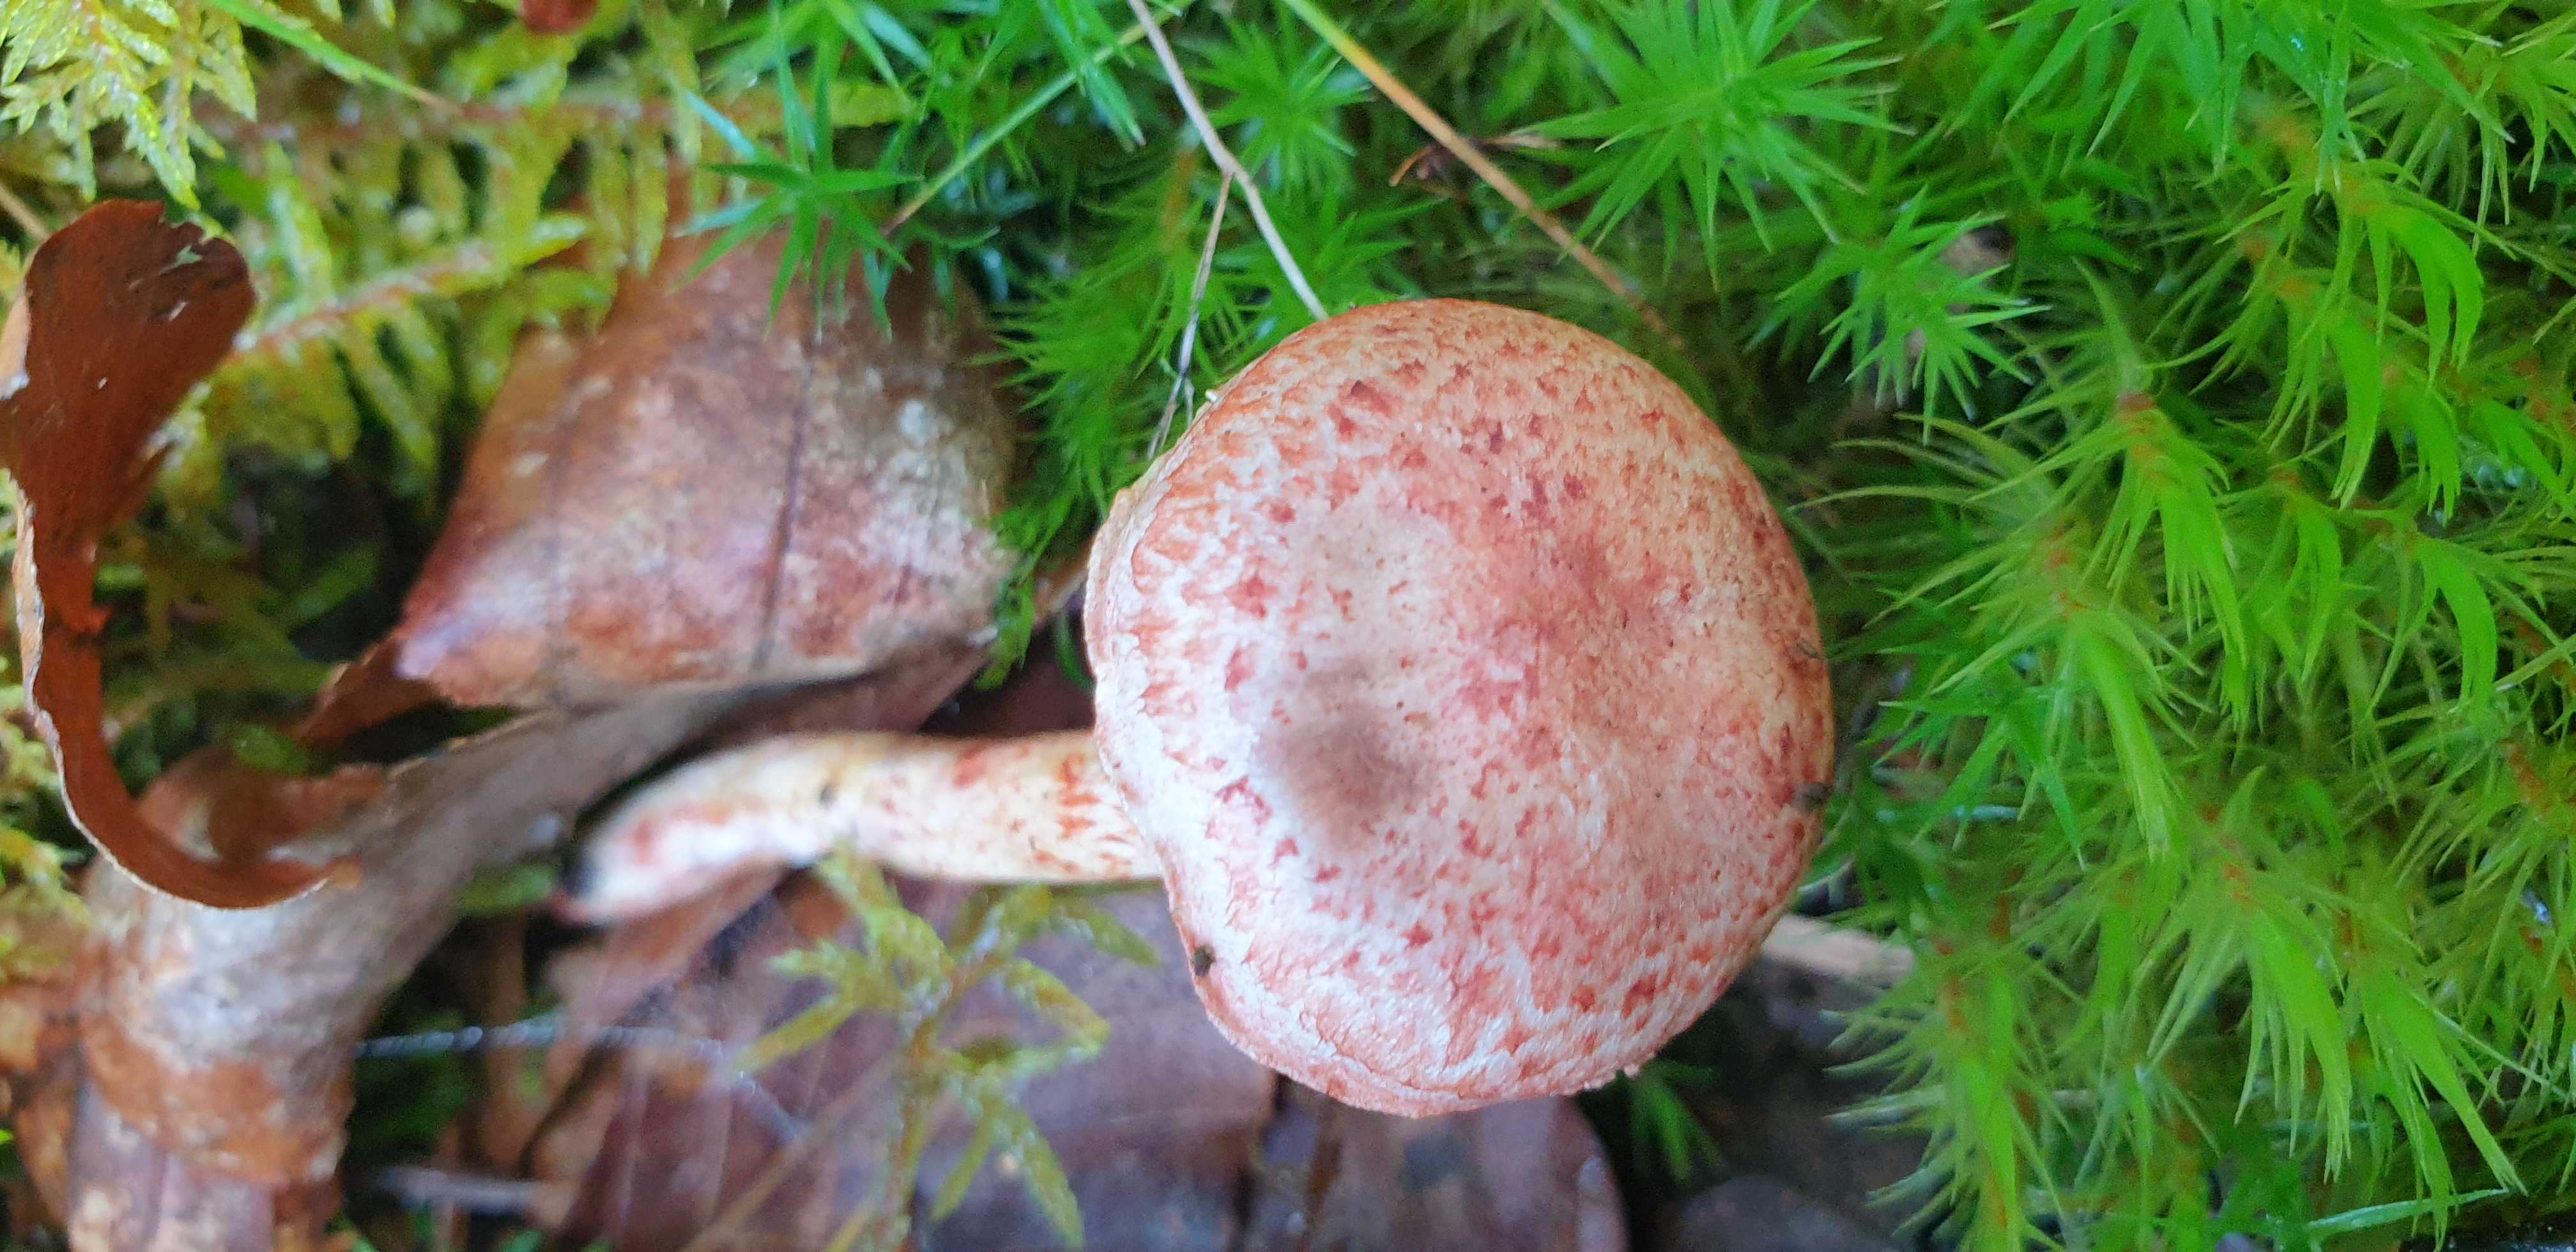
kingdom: Fungi
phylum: Basidiomycota
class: Agaricomycetes
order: Agaricales
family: Cortinariaceae
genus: Cortinarius
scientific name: Cortinarius bolaris
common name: cinnoberskællet slørhat
